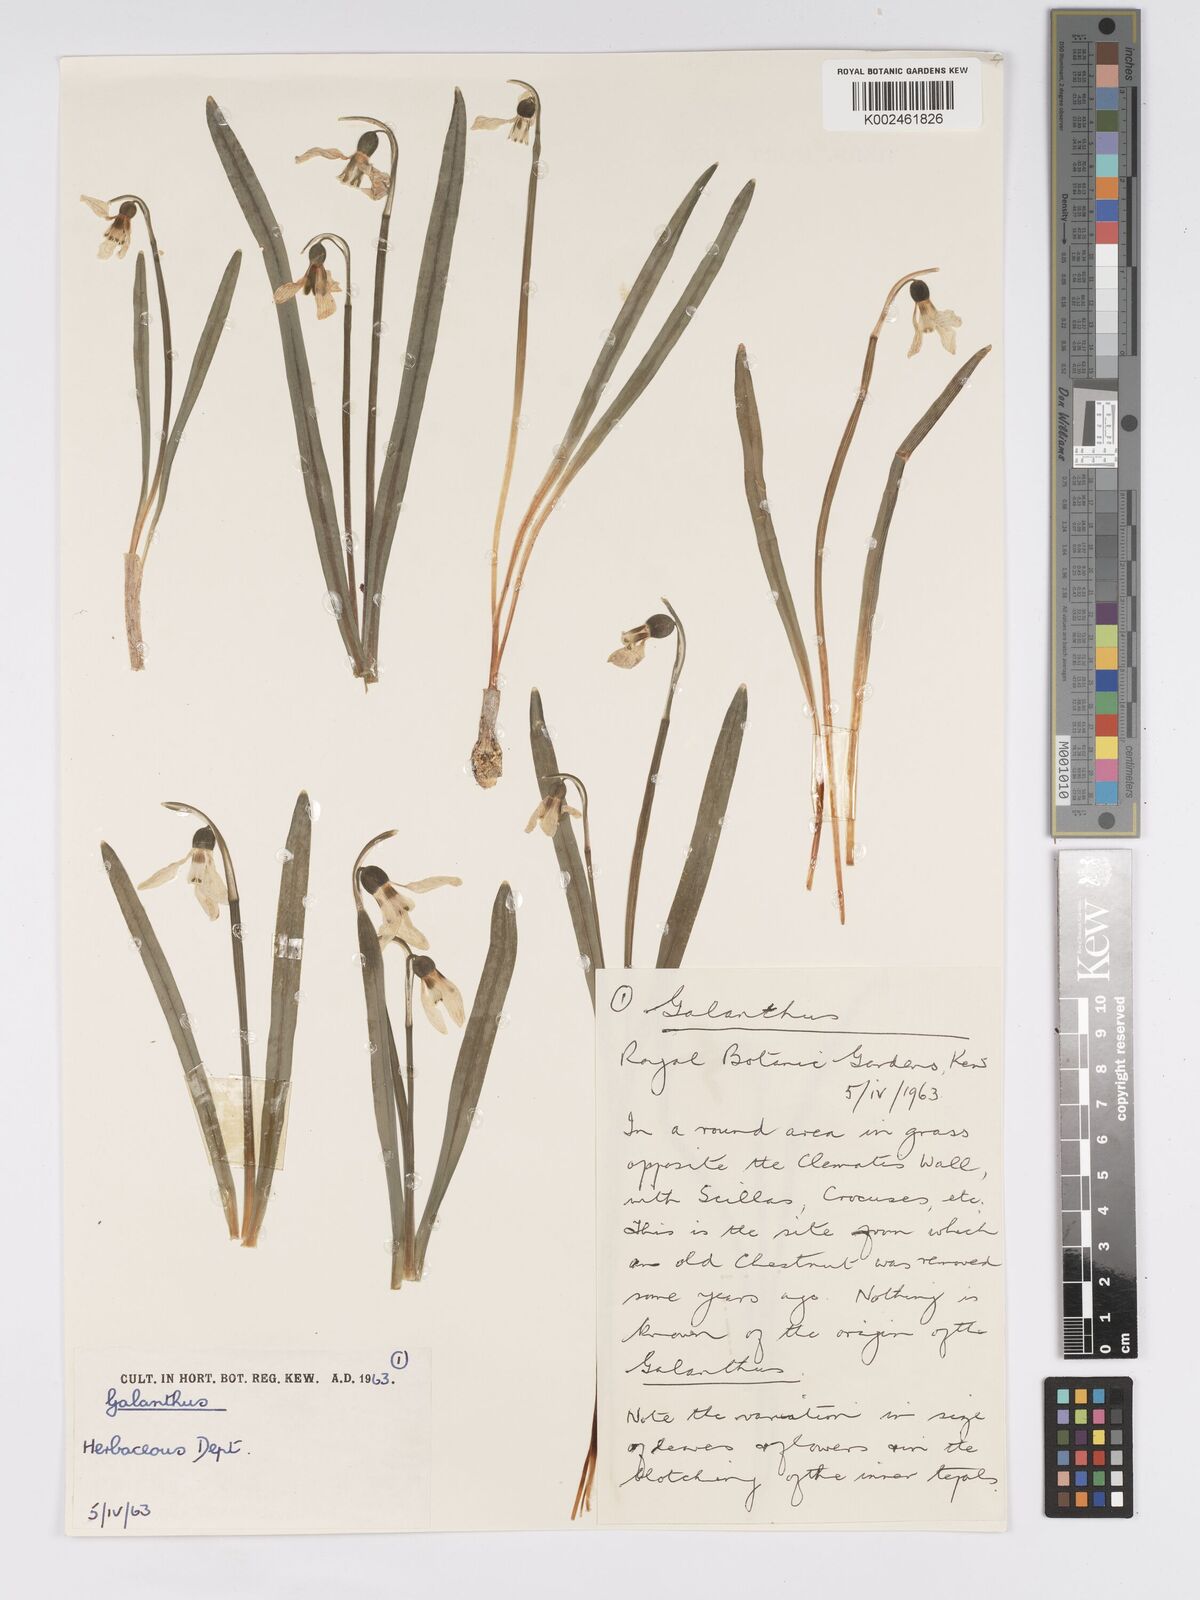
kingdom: Plantae
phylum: Tracheophyta
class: Liliopsida
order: Asparagales
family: Amaryllidaceae
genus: Galanthus
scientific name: Galanthus elwesii
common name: Greater snowdrop
